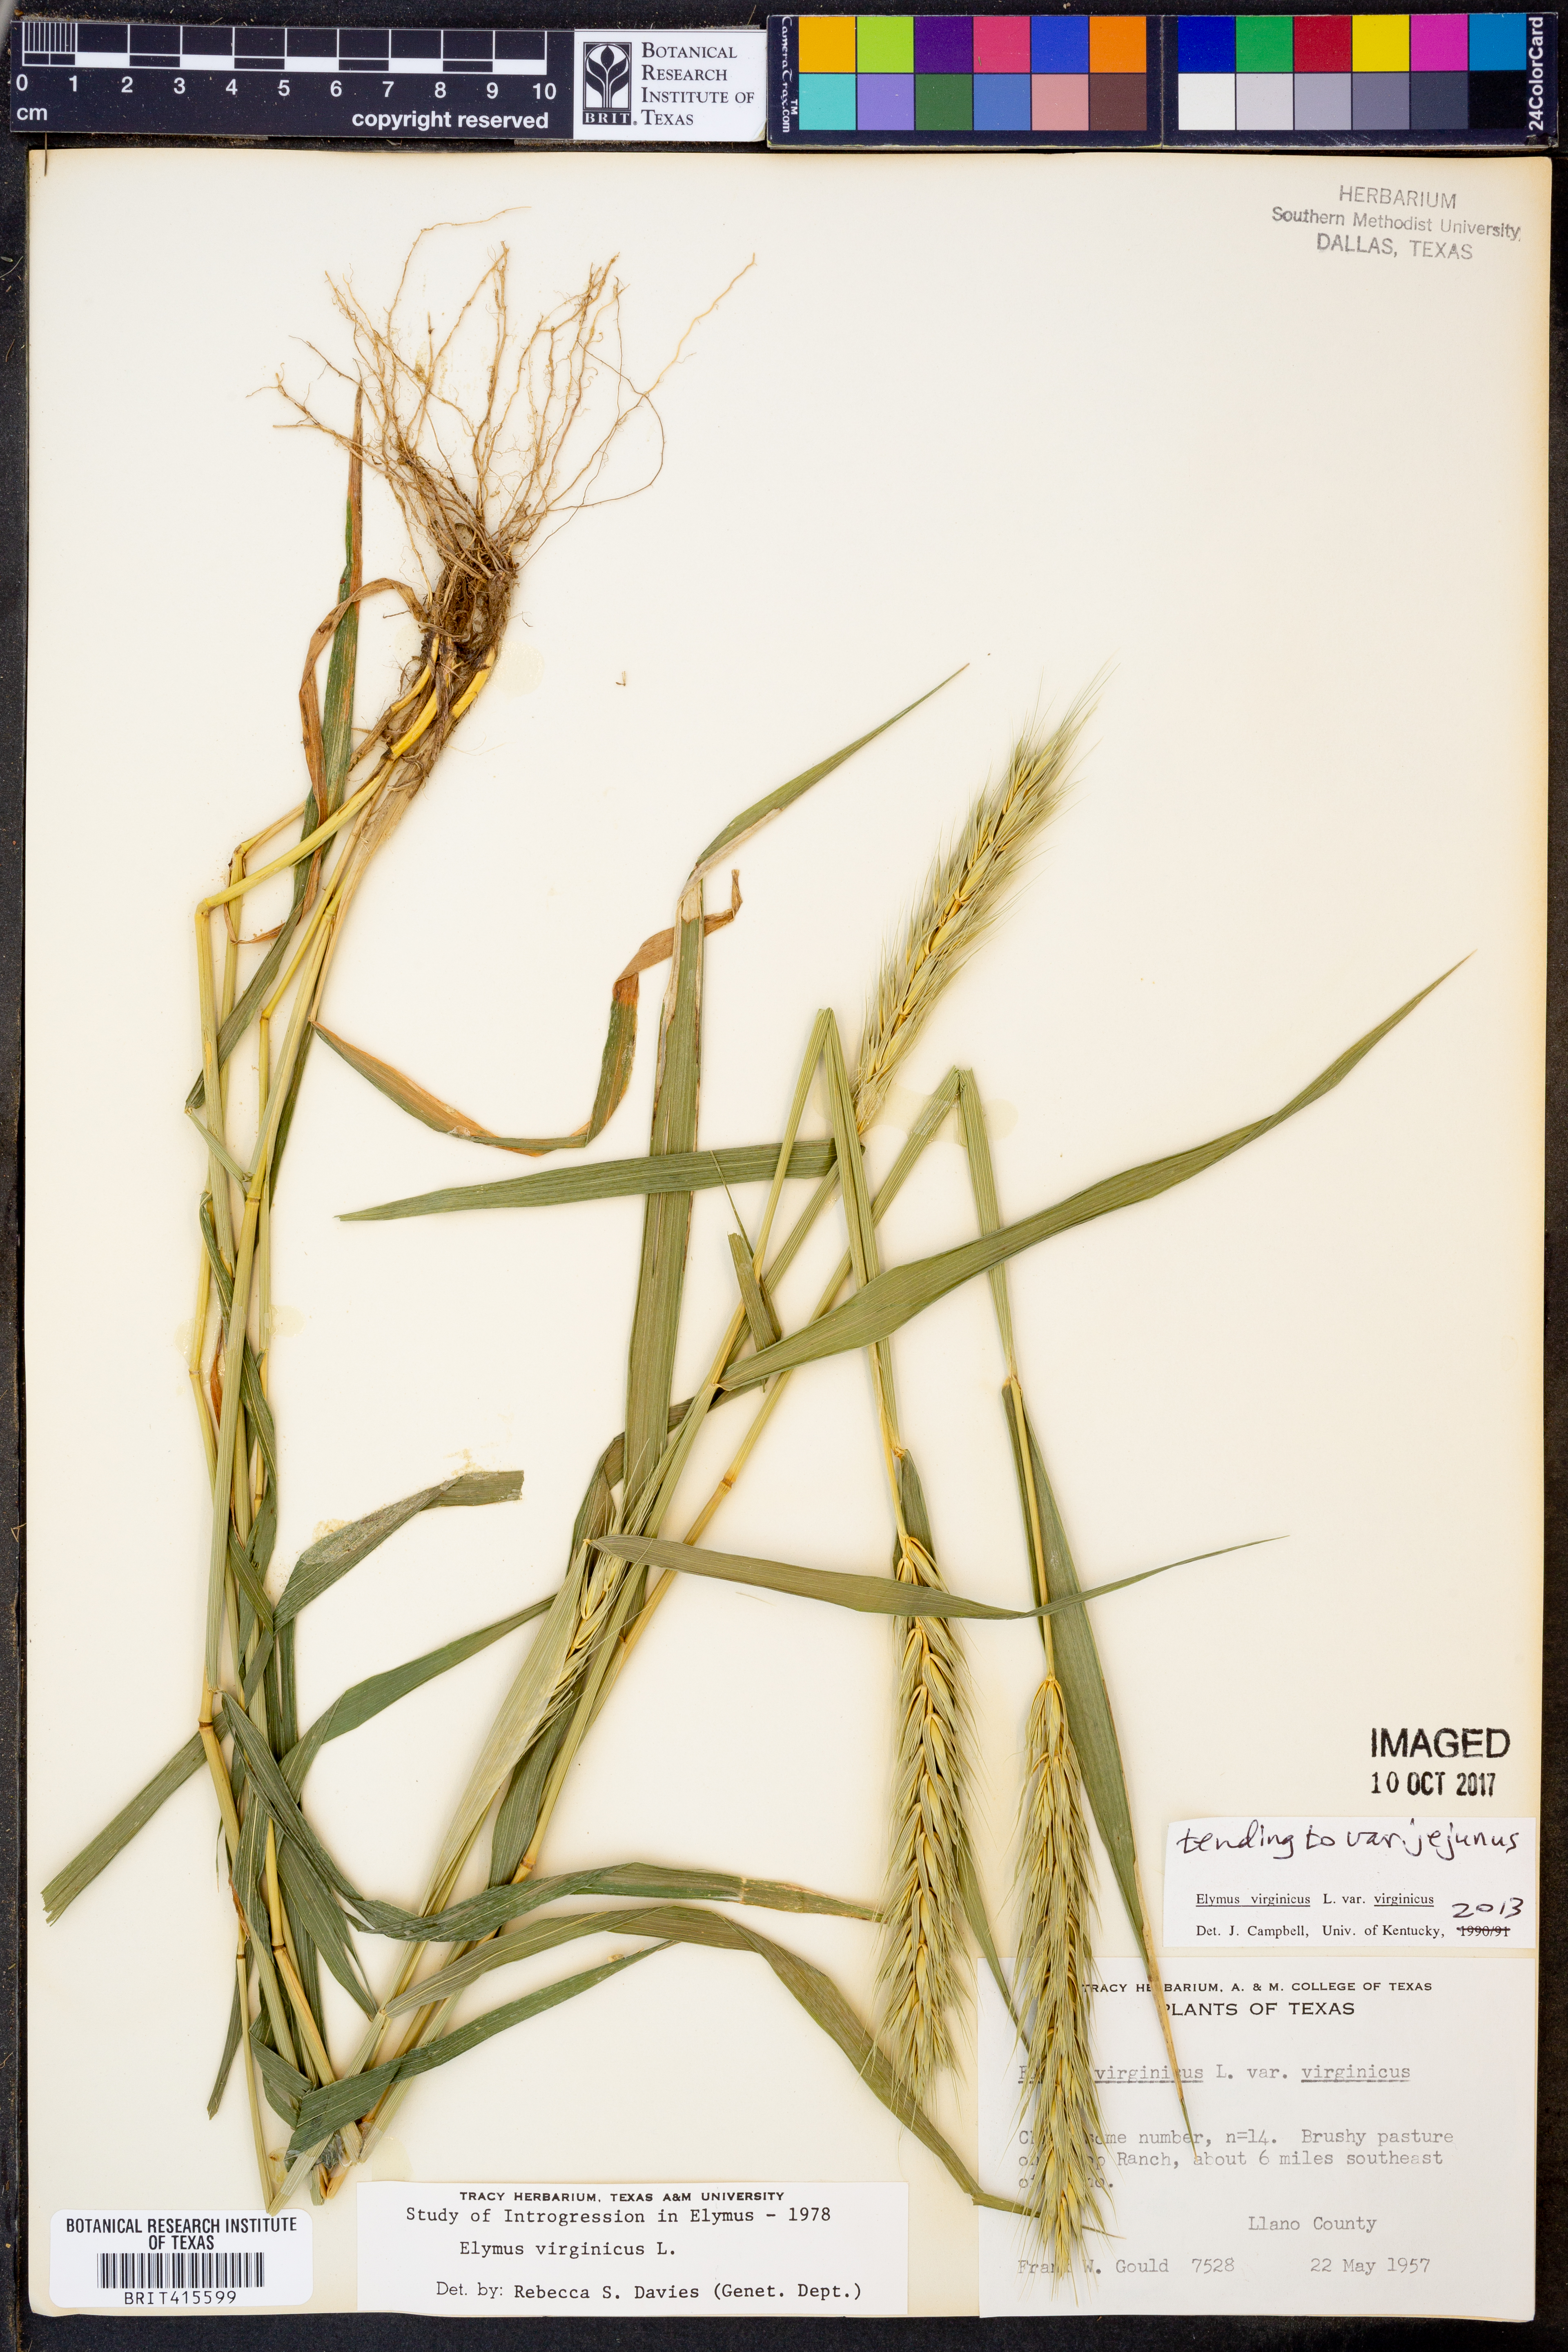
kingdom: Plantae
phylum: Tracheophyta
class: Liliopsida
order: Poales
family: Poaceae
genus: Elymus
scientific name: Elymus virginicus
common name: Common eastern wildrye
